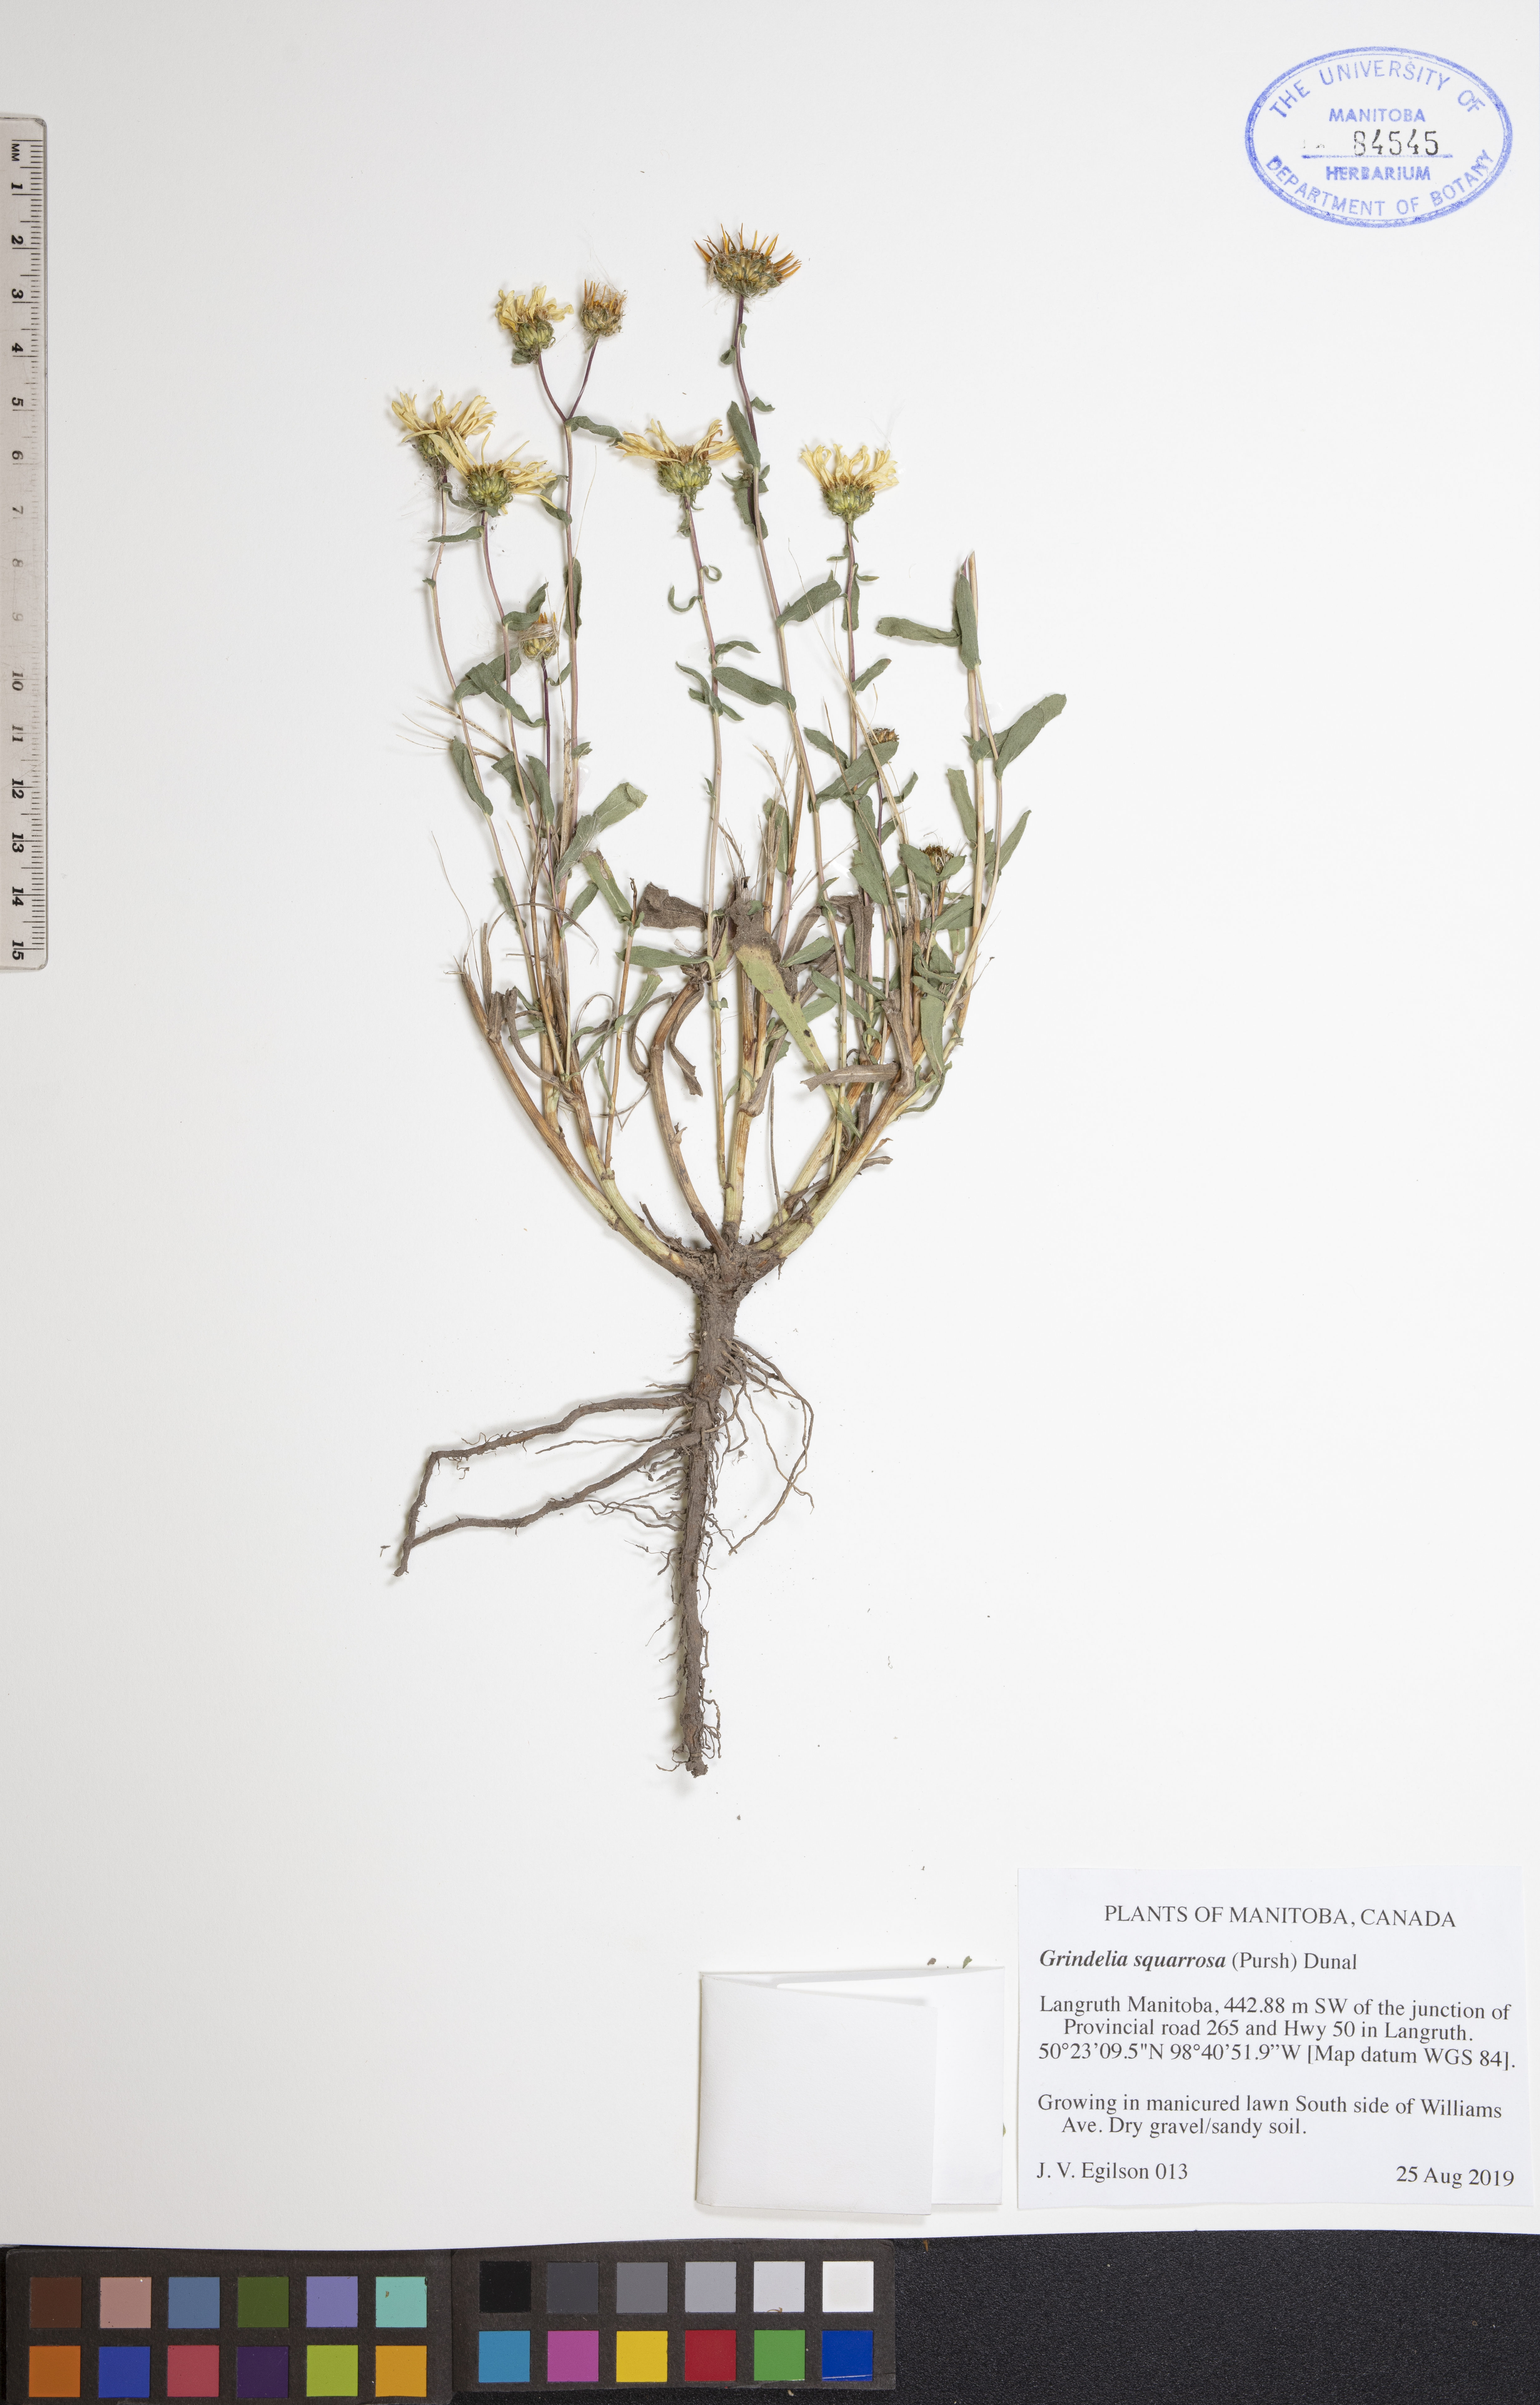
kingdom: Plantae
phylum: Tracheophyta
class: Magnoliopsida
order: Asterales
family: Asteraceae
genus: Grindelia
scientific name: Grindelia squarrosa
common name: Curly-cup gumweed
